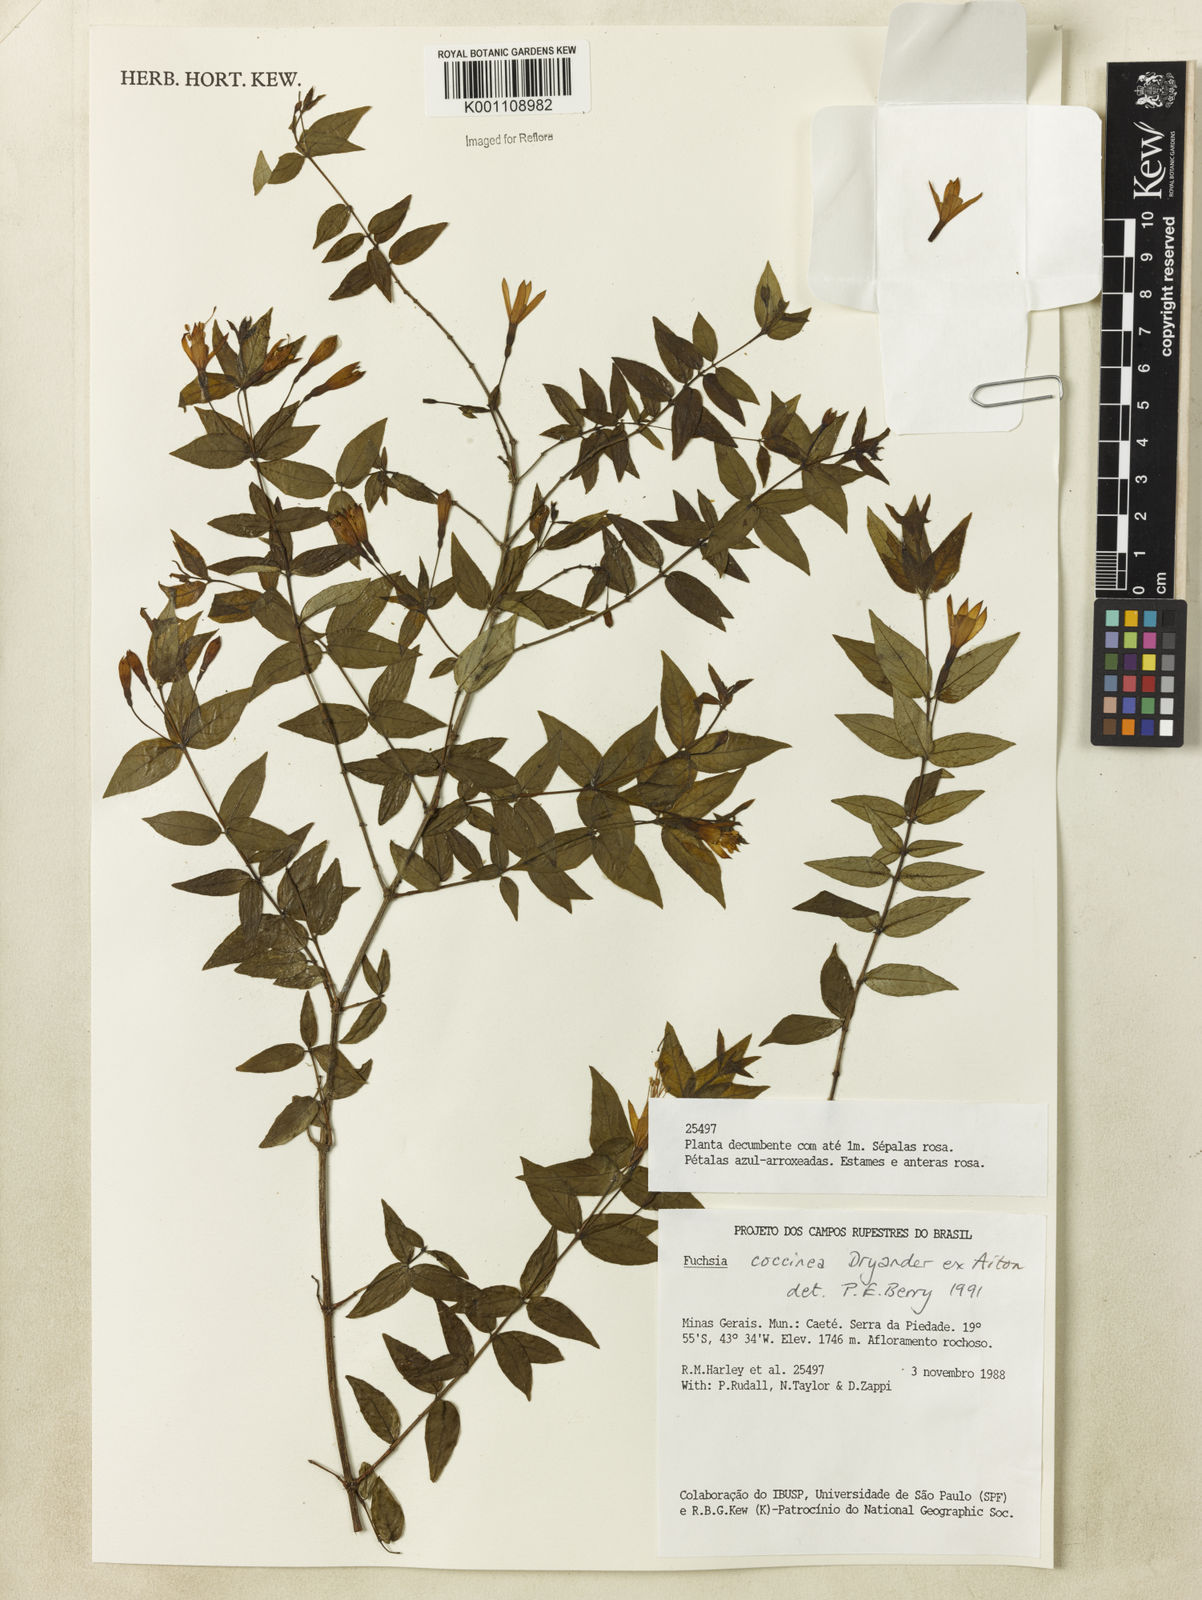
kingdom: Plantae
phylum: Tracheophyta
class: Magnoliopsida
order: Myrtales
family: Onagraceae
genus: Fuchsia
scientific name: Fuchsia
